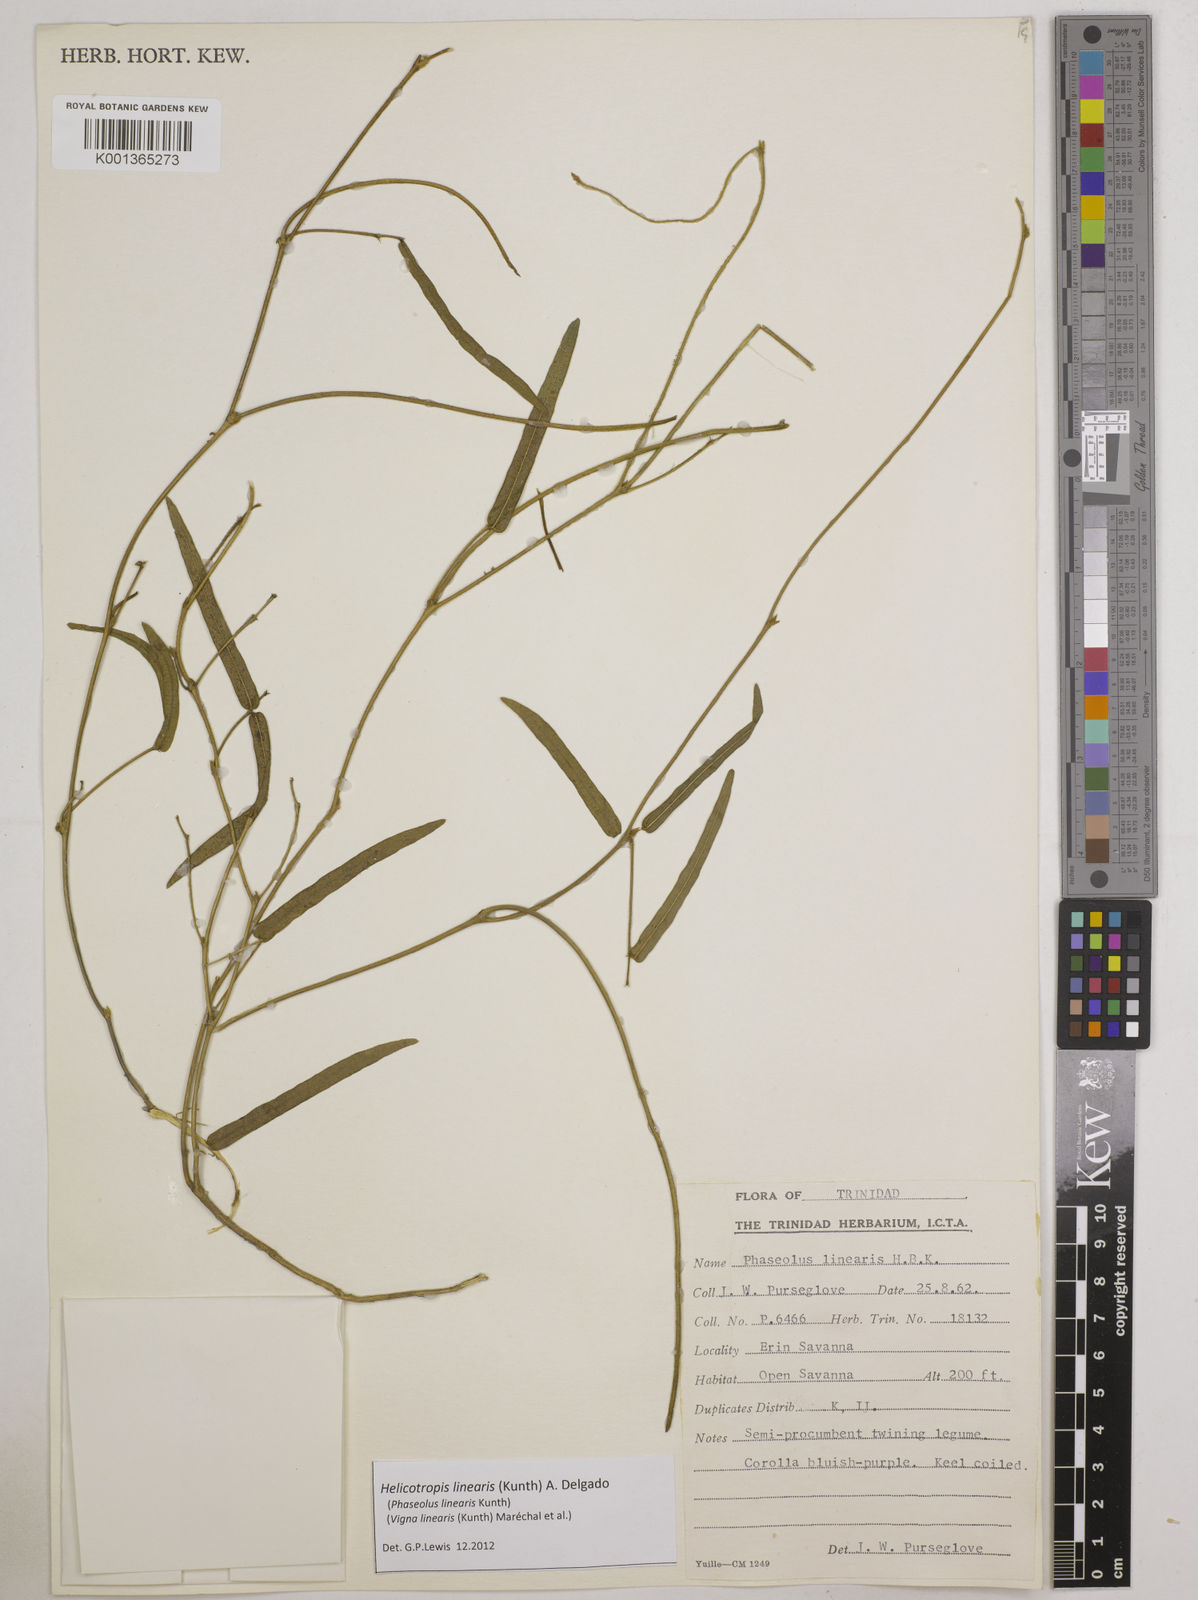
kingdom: Plantae
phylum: Tracheophyta
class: Magnoliopsida
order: Fabales
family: Fabaceae
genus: Helicotropis
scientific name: Helicotropis linearis
